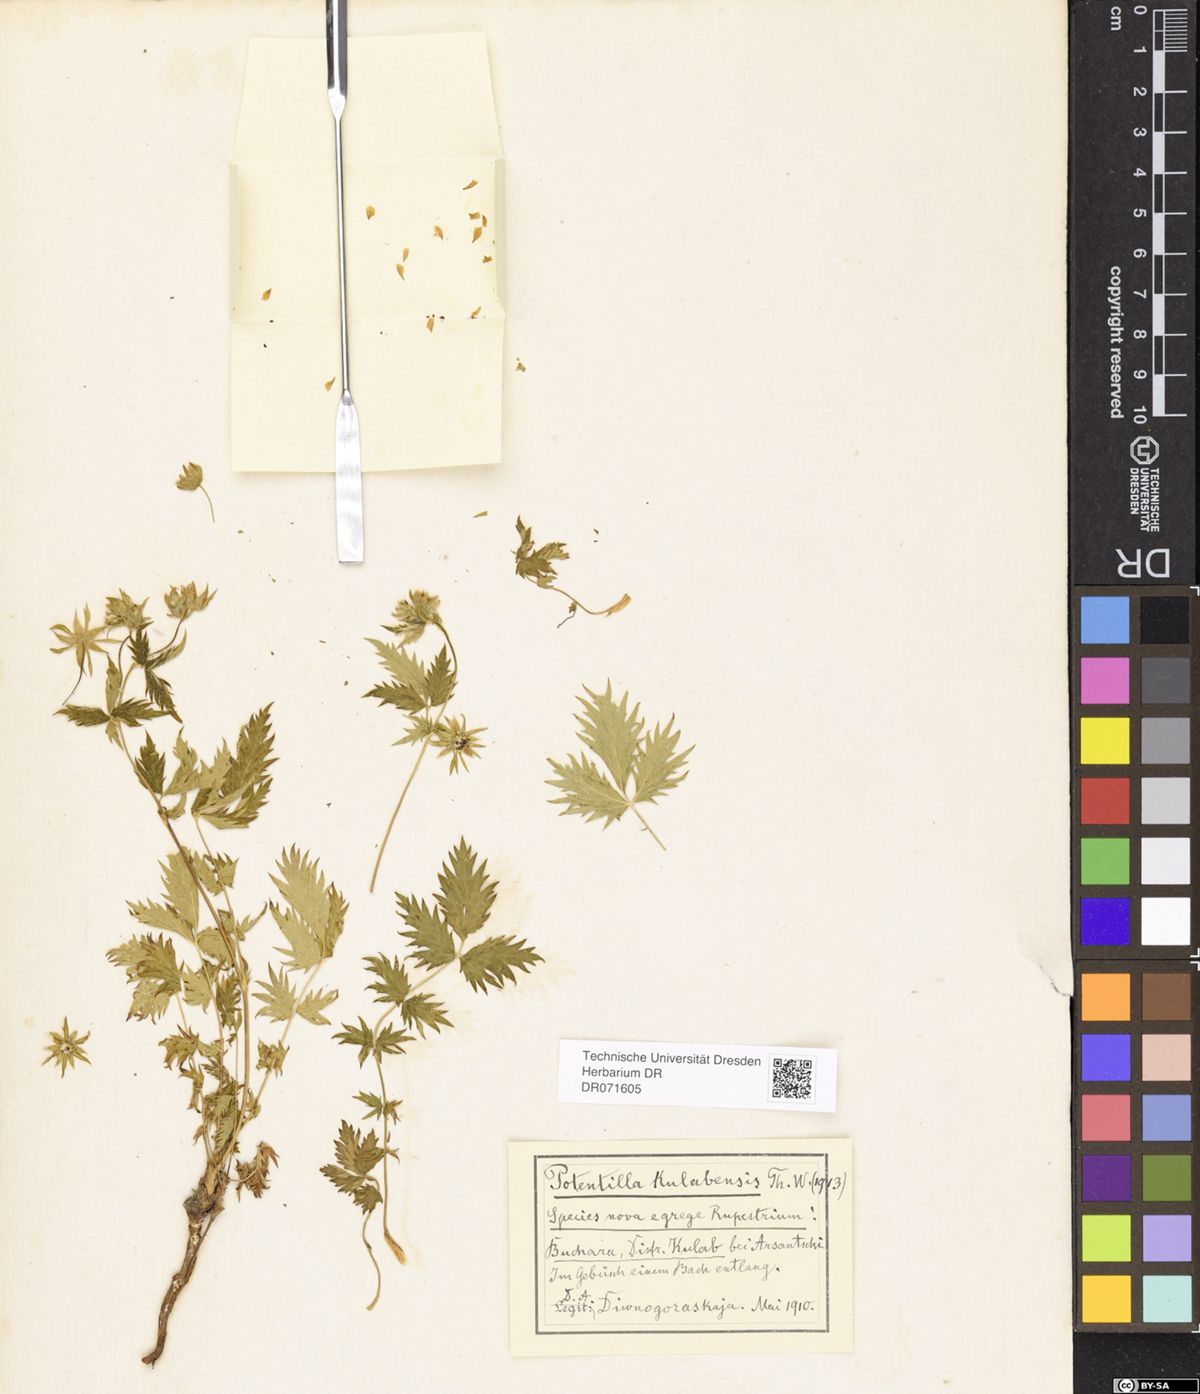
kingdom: Plantae
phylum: Tracheophyta
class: Magnoliopsida
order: Rosales
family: Rosaceae
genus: Potentilla
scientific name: Potentilla kulabensis
